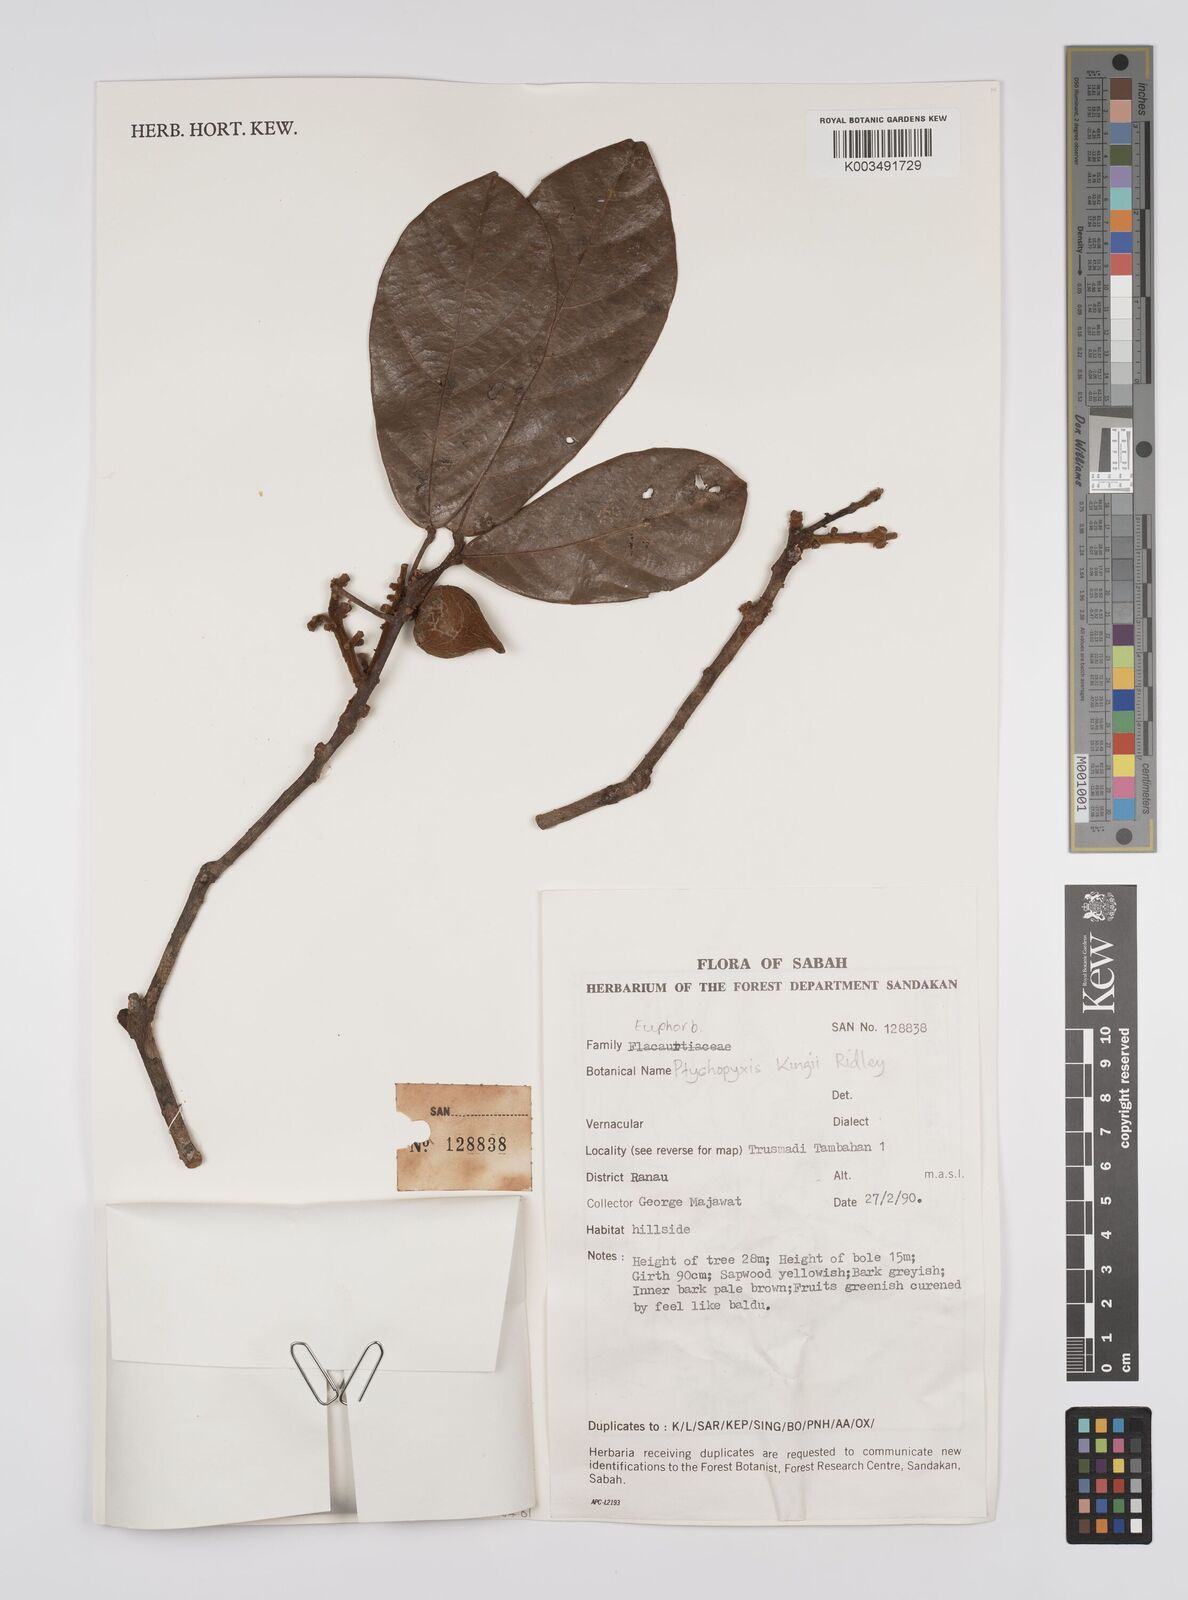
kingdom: Plantae
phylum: Tracheophyta
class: Magnoliopsida
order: Malpighiales
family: Euphorbiaceae
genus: Ptychopyxis
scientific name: Ptychopyxis kingii
